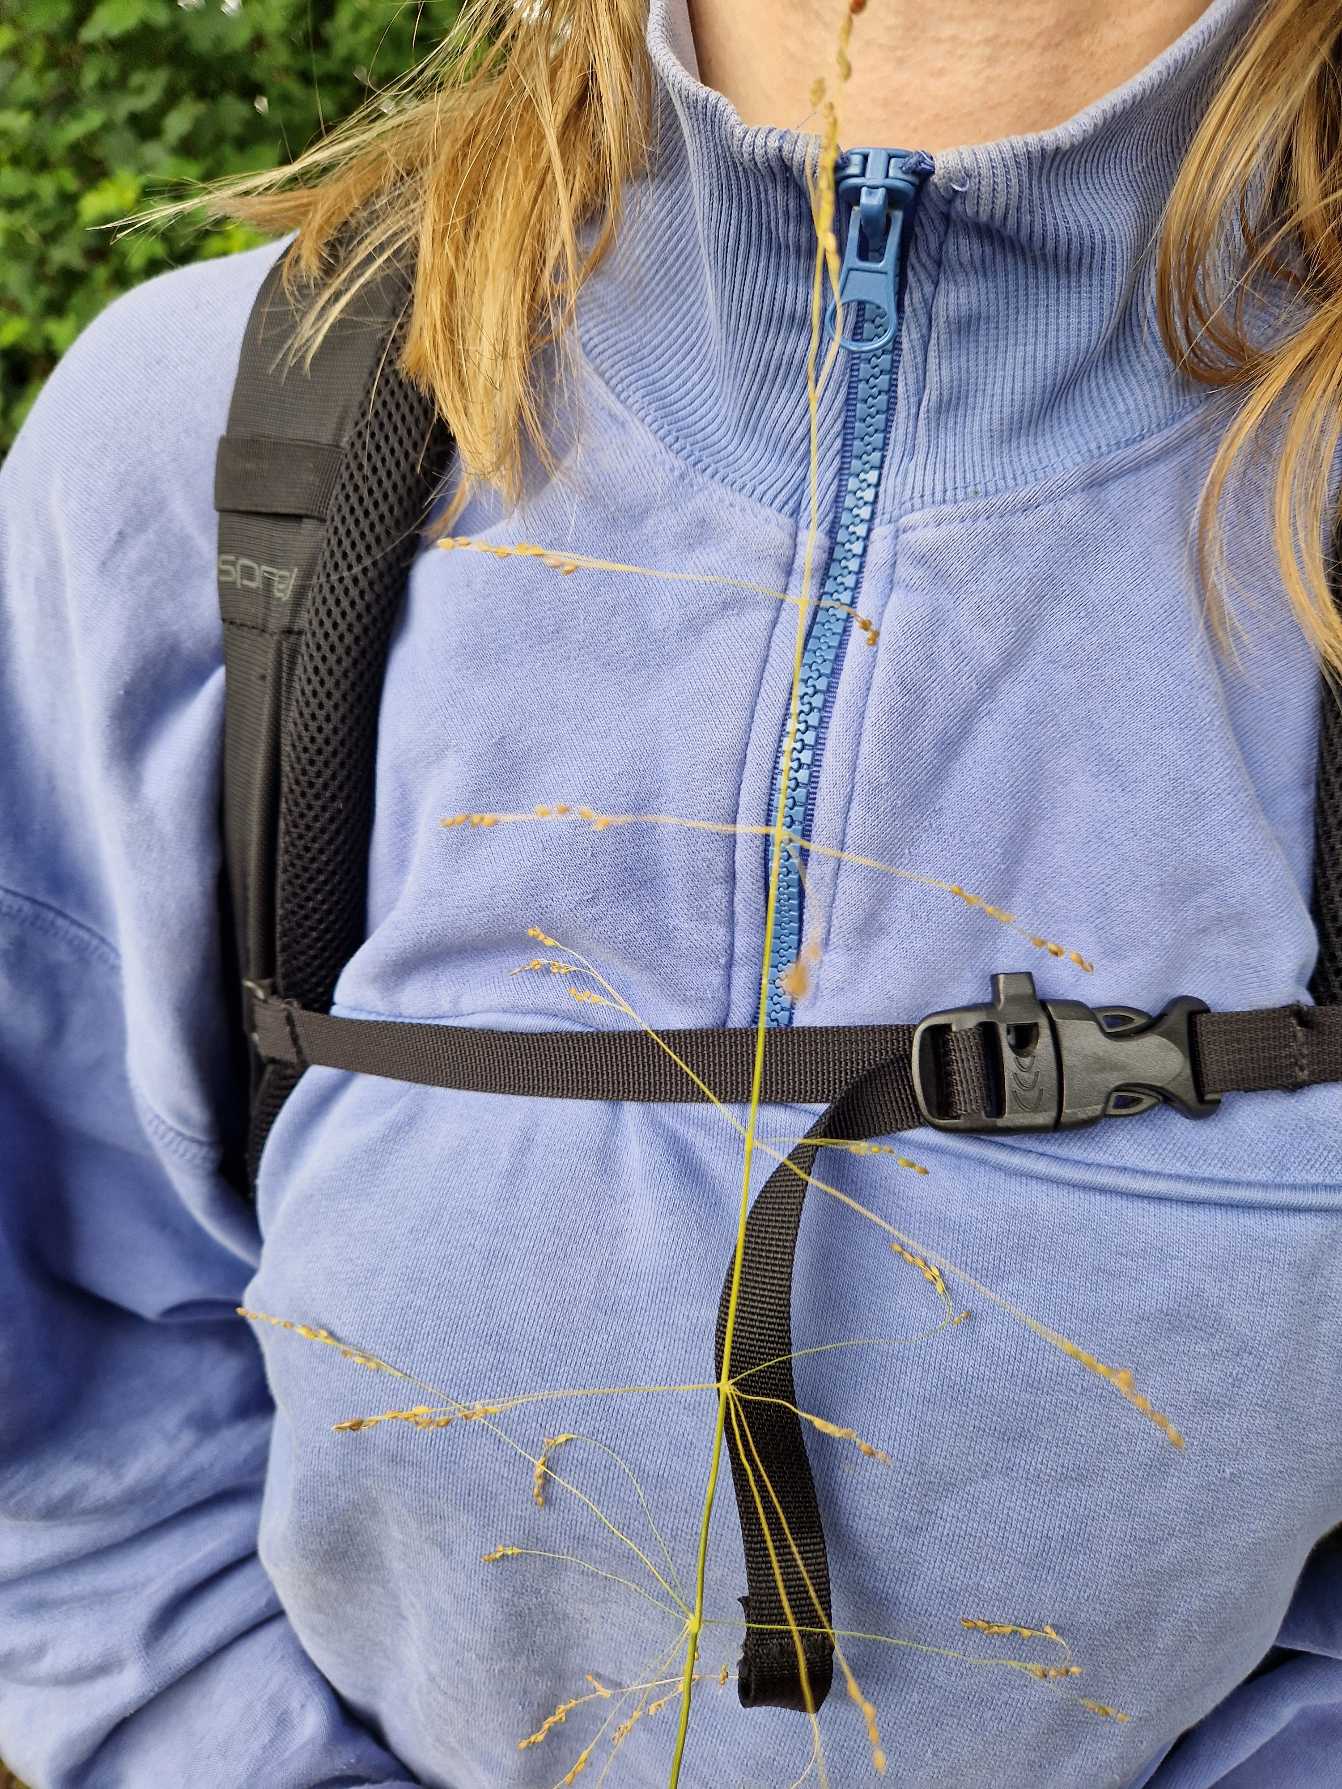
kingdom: Plantae
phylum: Tracheophyta
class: Liliopsida
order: Poales
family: Poaceae
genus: Milium
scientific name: Milium effusum
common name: Miliegræs
